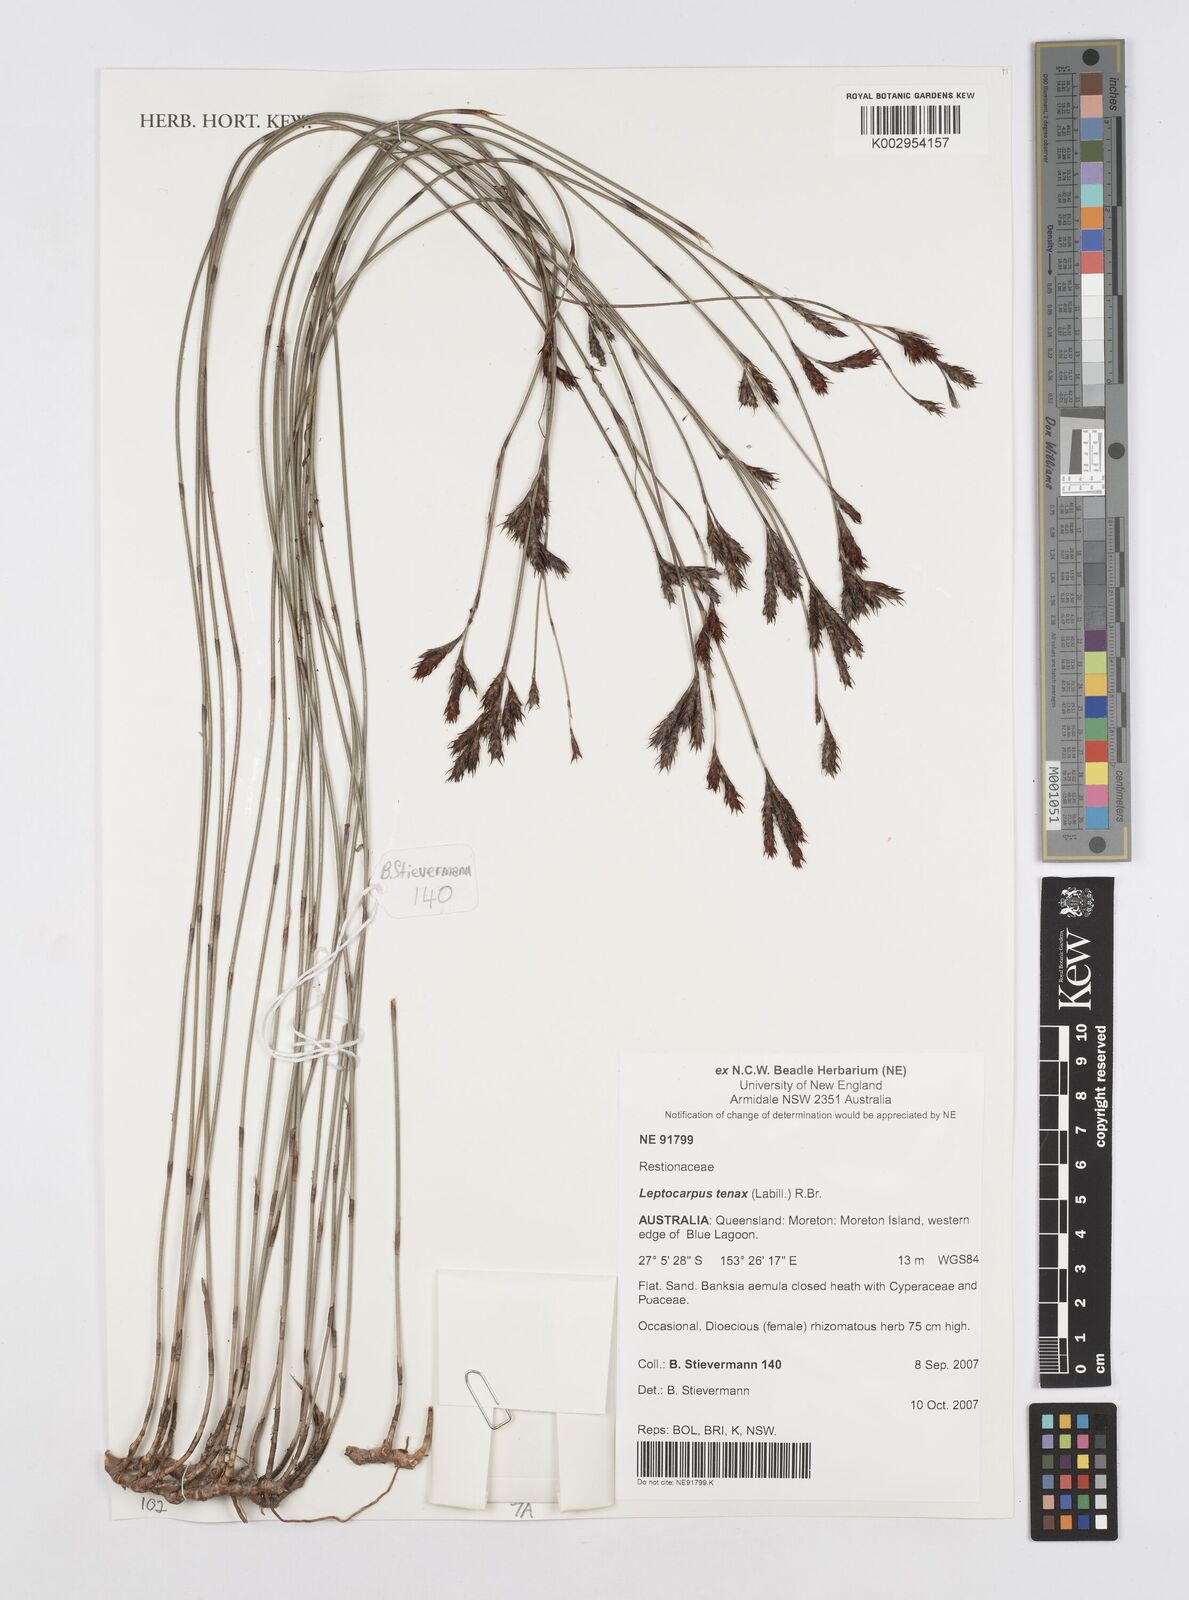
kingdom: Plantae
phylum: Tracheophyta
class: Liliopsida
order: Poales
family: Restionaceae
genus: Leptocarpus
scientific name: Leptocarpus tenax
